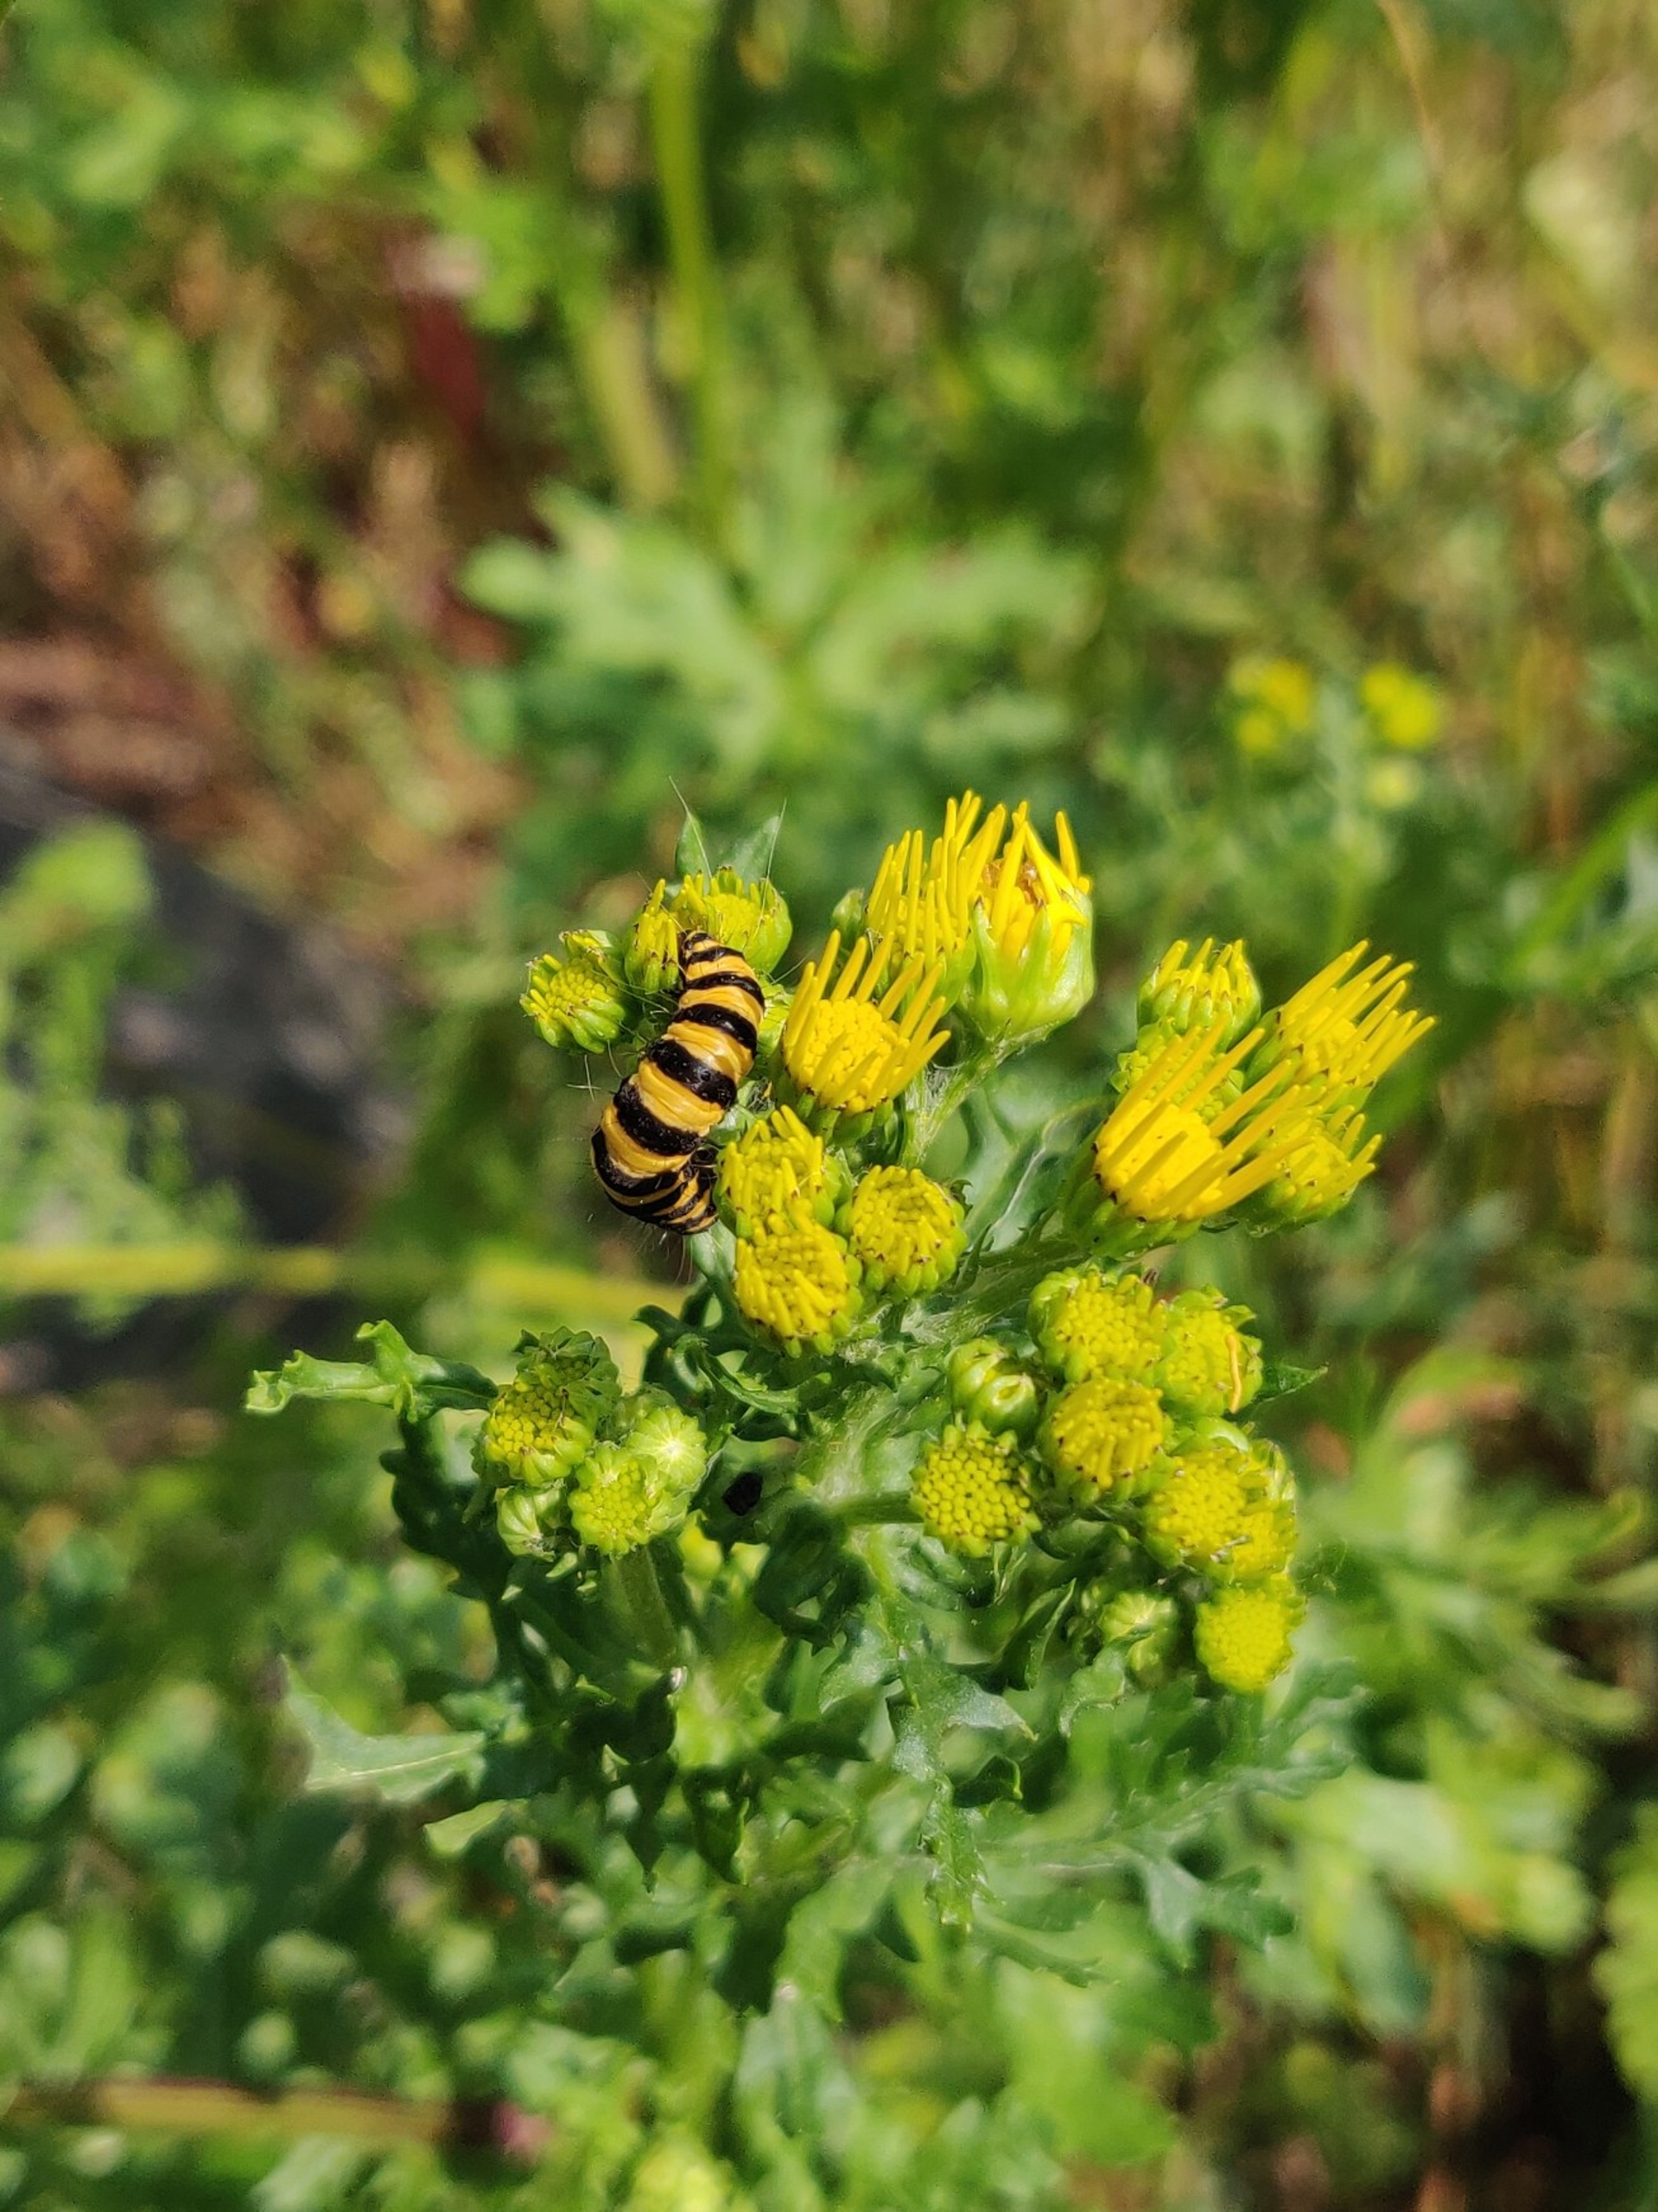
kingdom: Animalia
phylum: Arthropoda
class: Insecta
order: Lepidoptera
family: Erebidae
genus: Tyria
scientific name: Tyria jacobaeae
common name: Blodplet
